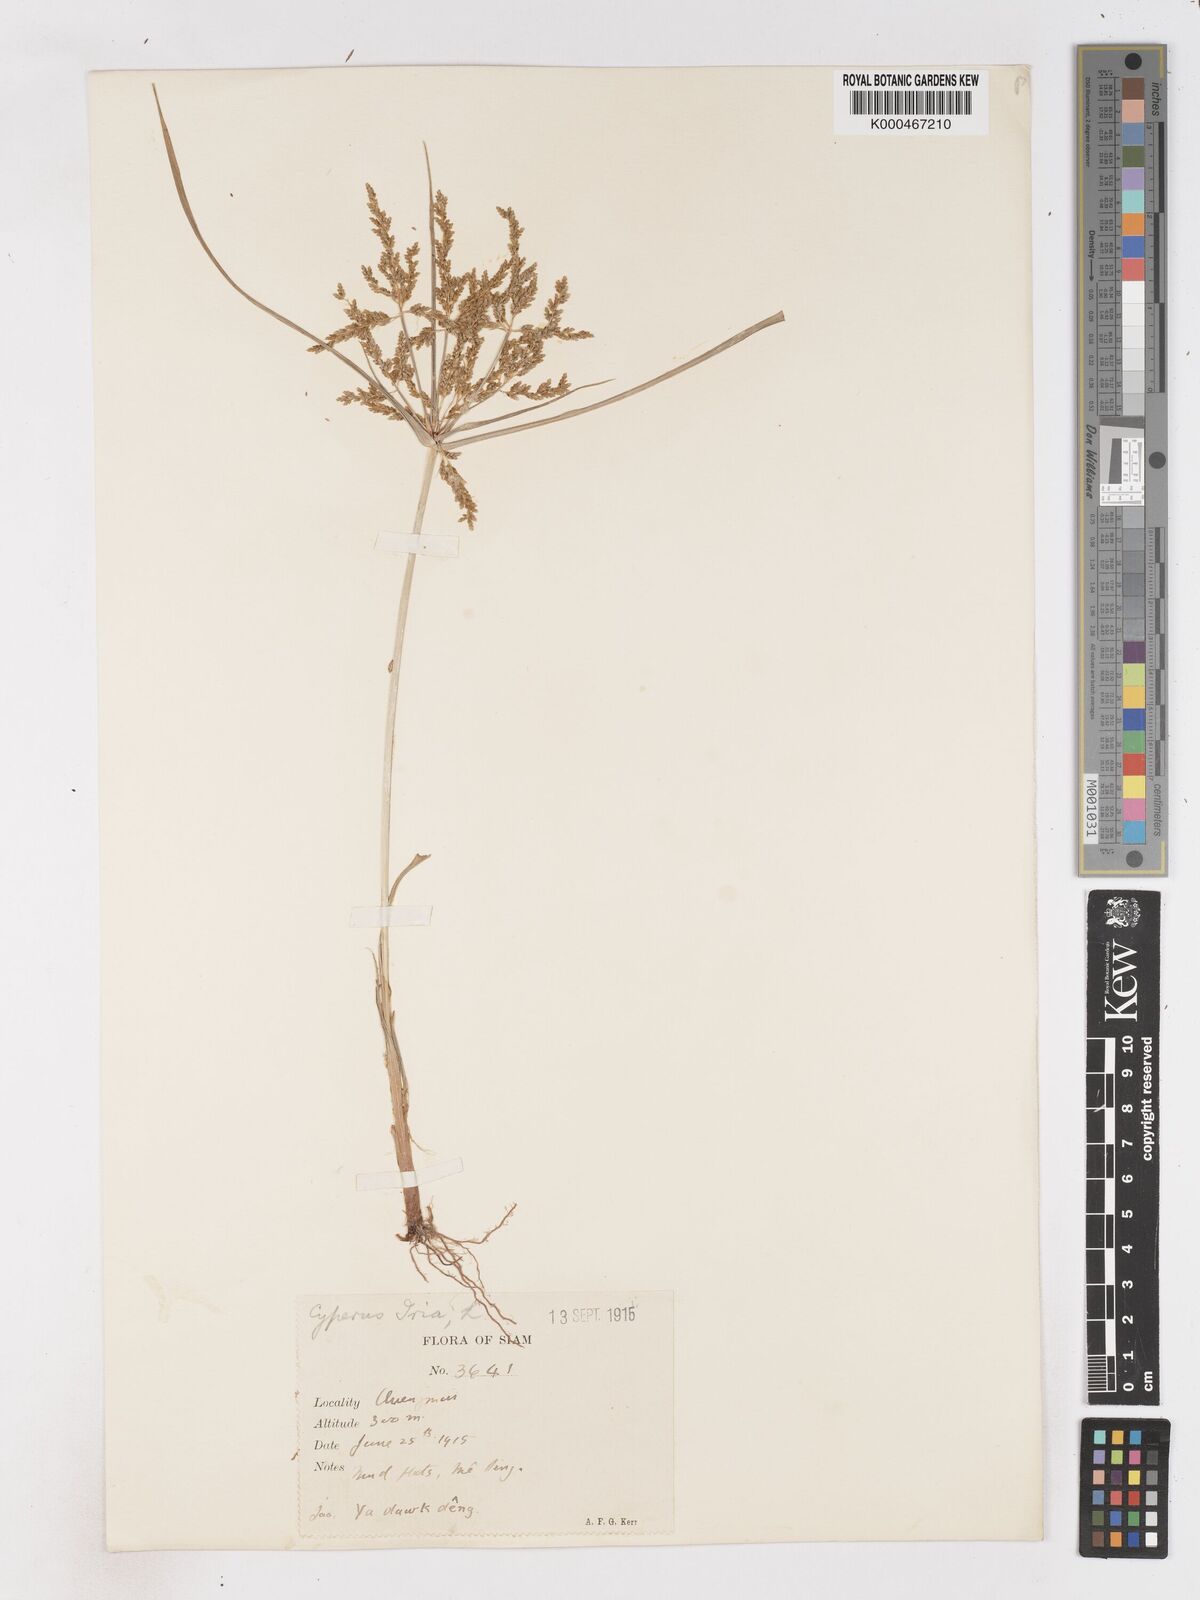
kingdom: Plantae
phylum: Tracheophyta
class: Liliopsida
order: Poales
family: Cyperaceae
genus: Cyperus
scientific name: Cyperus iria
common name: Ricefield flatsedge
